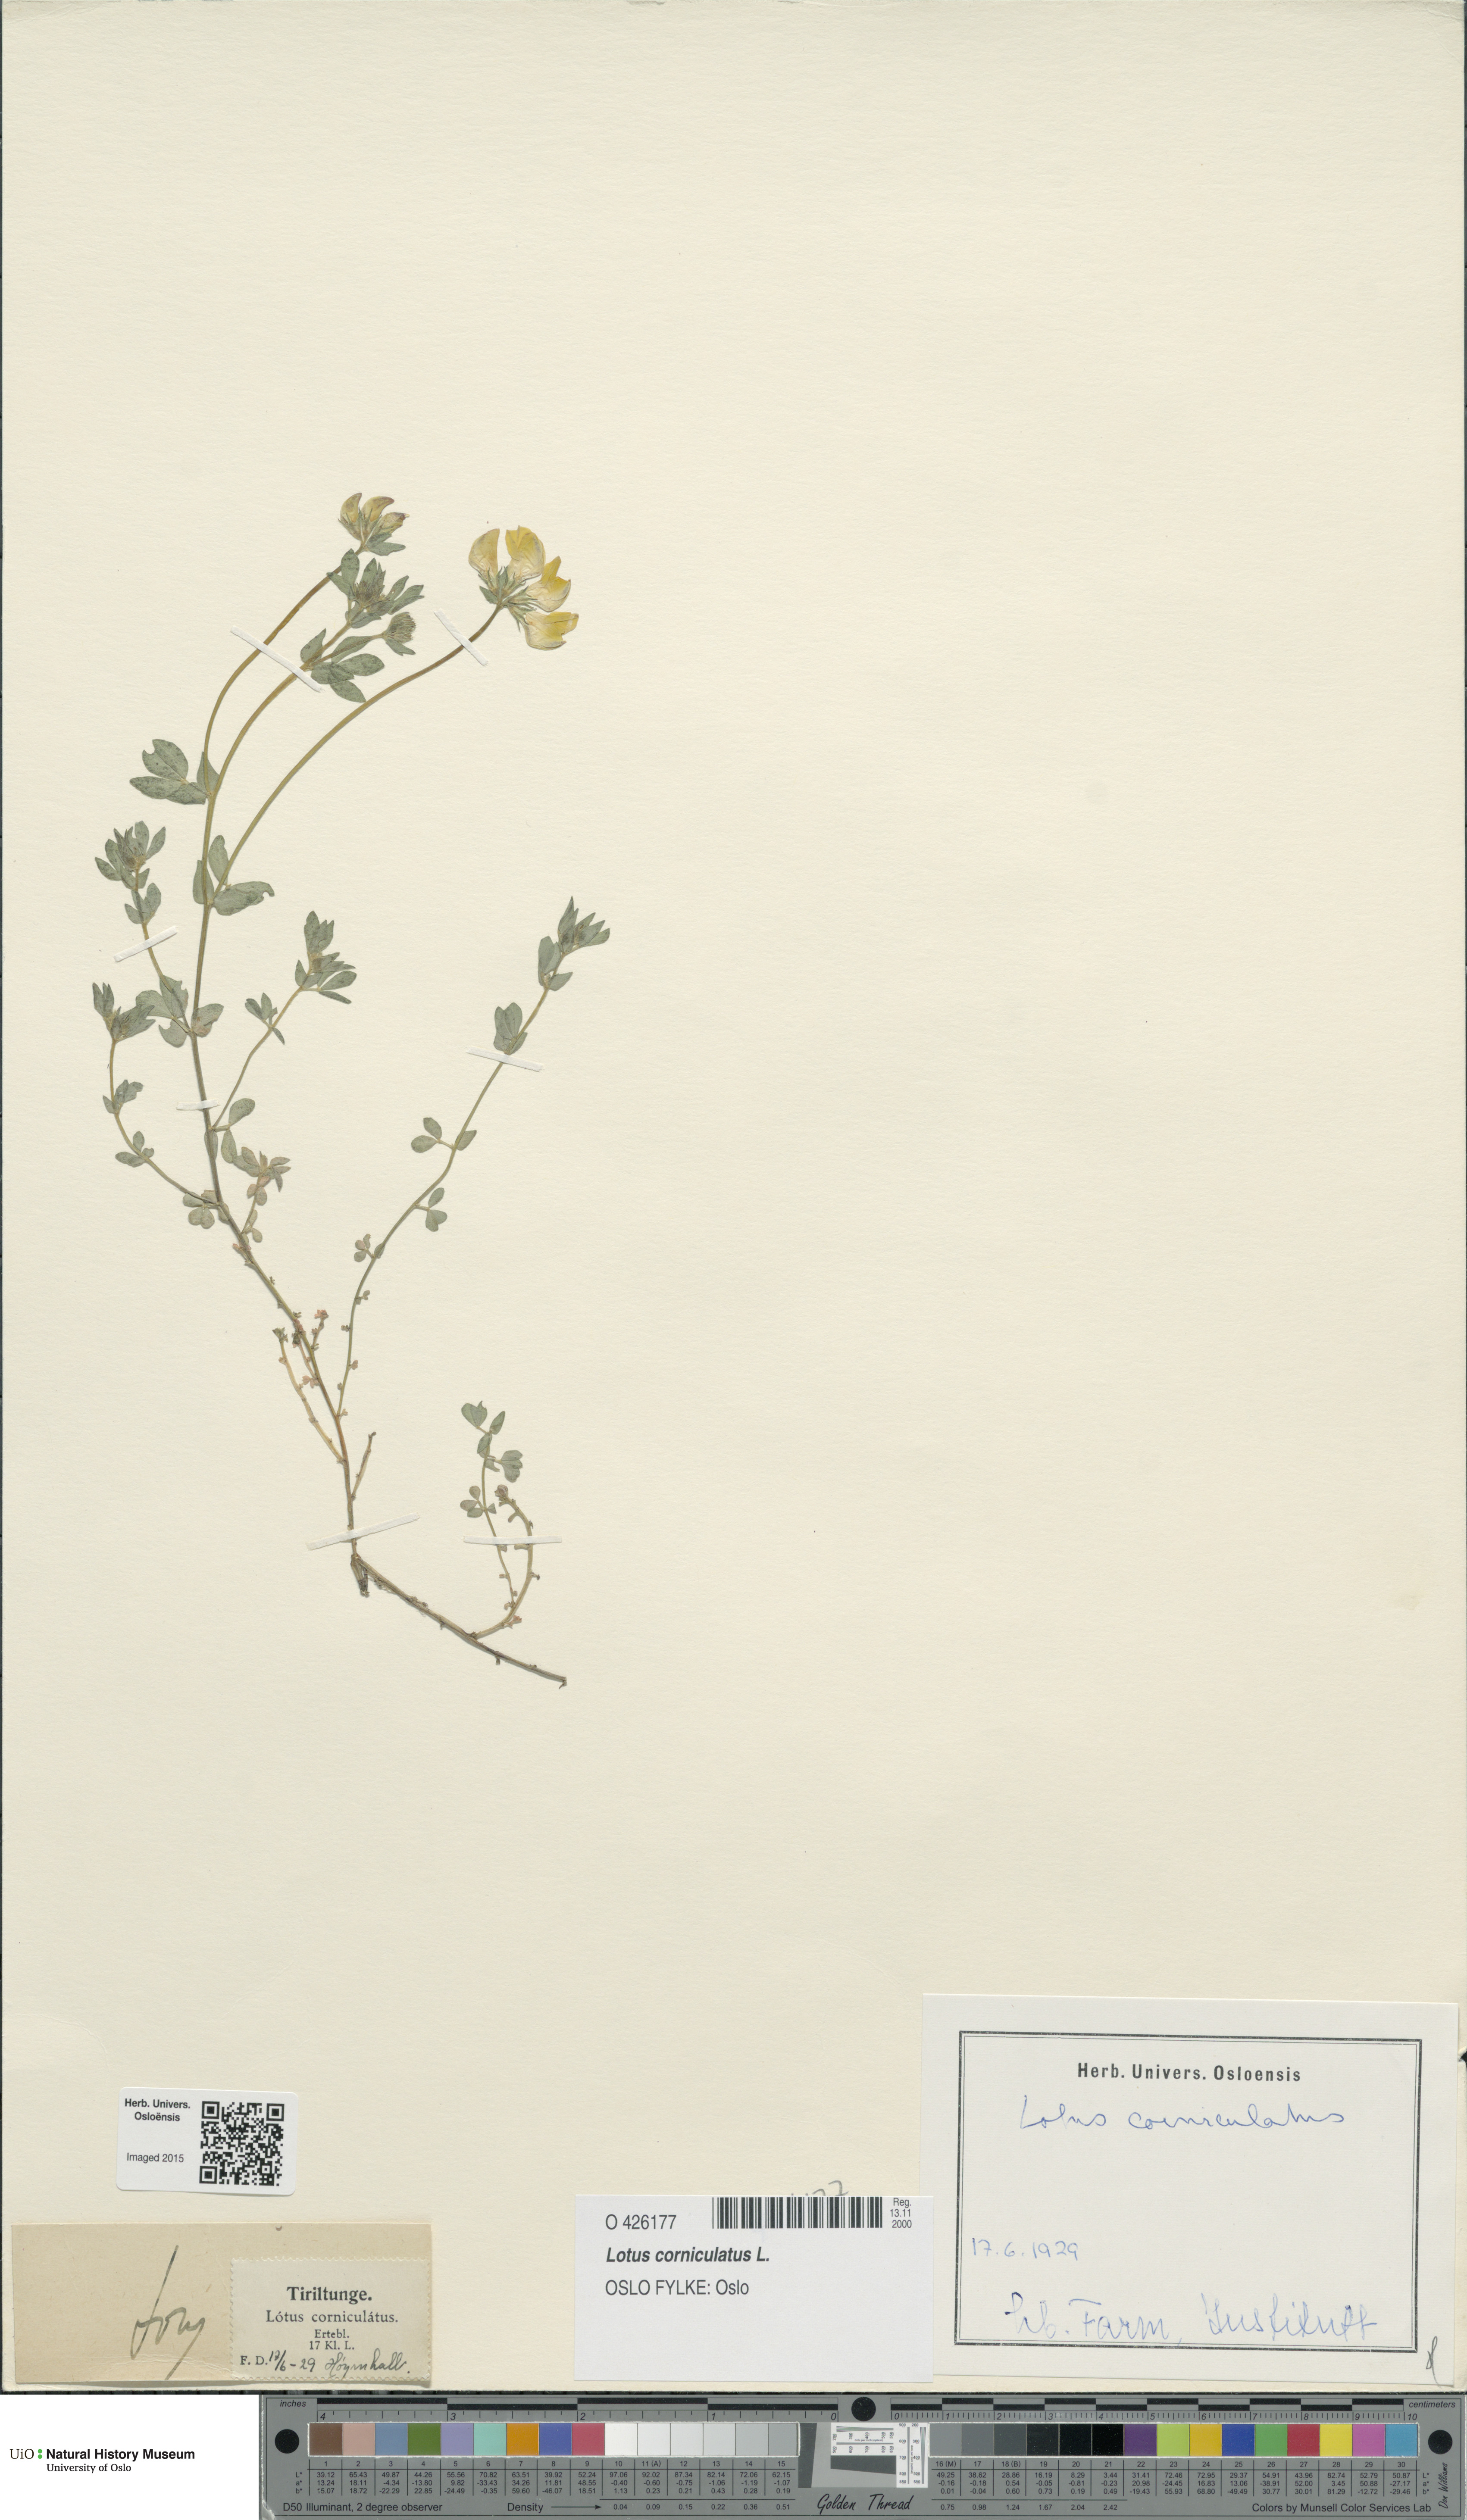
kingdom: Plantae
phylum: Tracheophyta
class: Magnoliopsida
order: Fabales
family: Fabaceae
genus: Lotus
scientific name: Lotus corniculatus
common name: Common bird's-foot-trefoil
